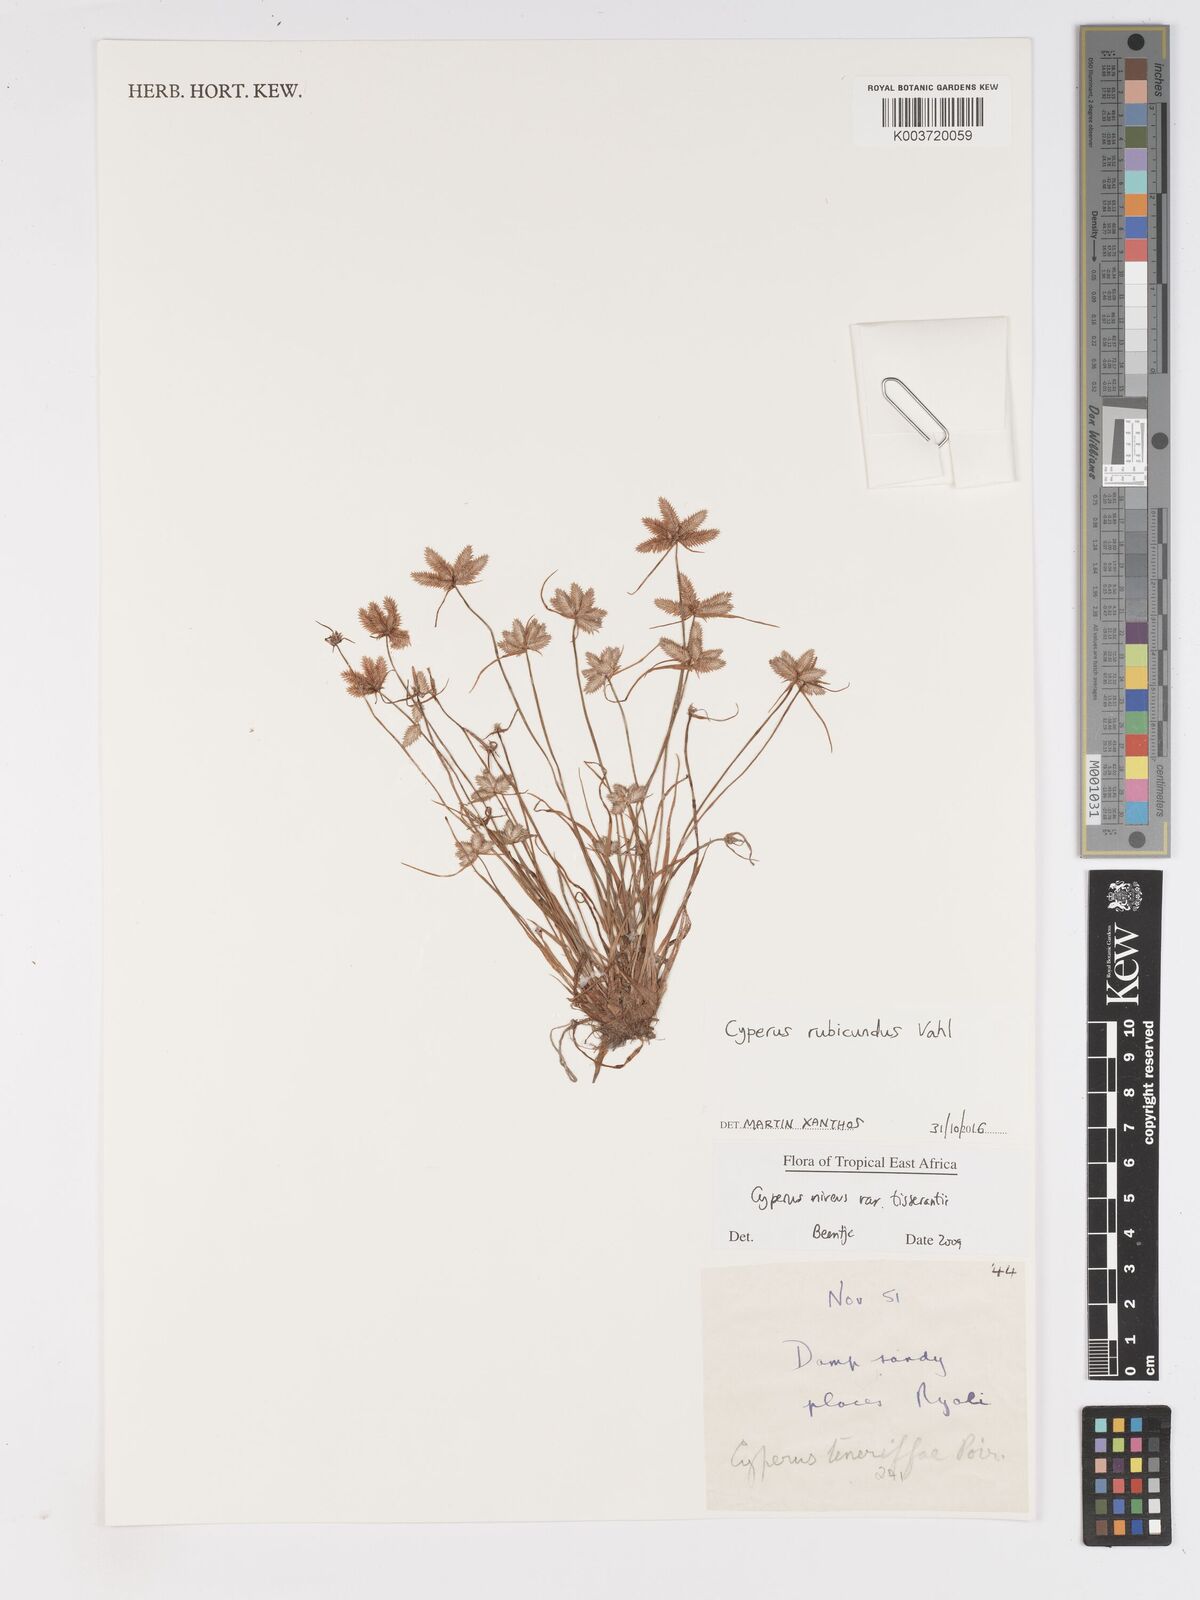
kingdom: Plantae
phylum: Tracheophyta
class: Liliopsida
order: Poales
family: Cyperaceae
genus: Cyperus
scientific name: Cyperus rubicundus
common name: Coco-grass
